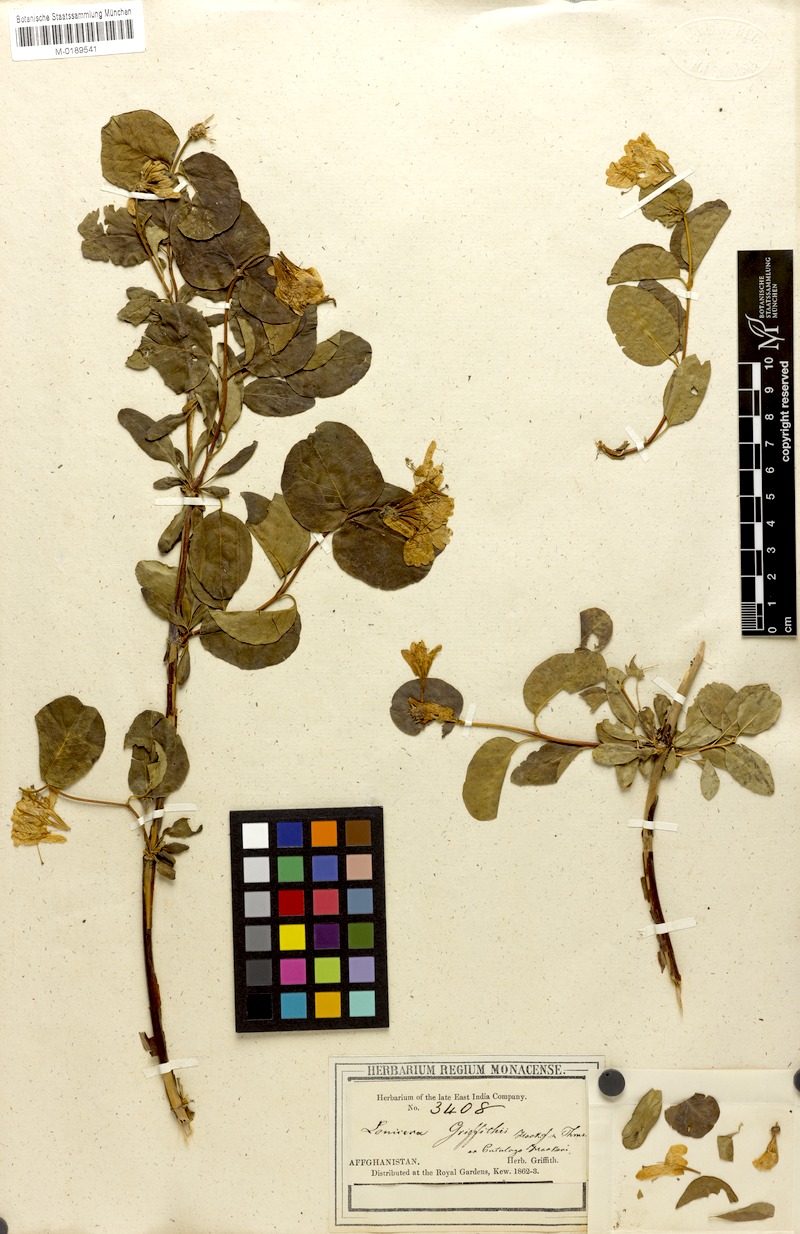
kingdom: Plantae
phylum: Tracheophyta
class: Magnoliopsida
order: Dipsacales
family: Caprifoliaceae
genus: Lonicera
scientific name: Lonicera griffithii
